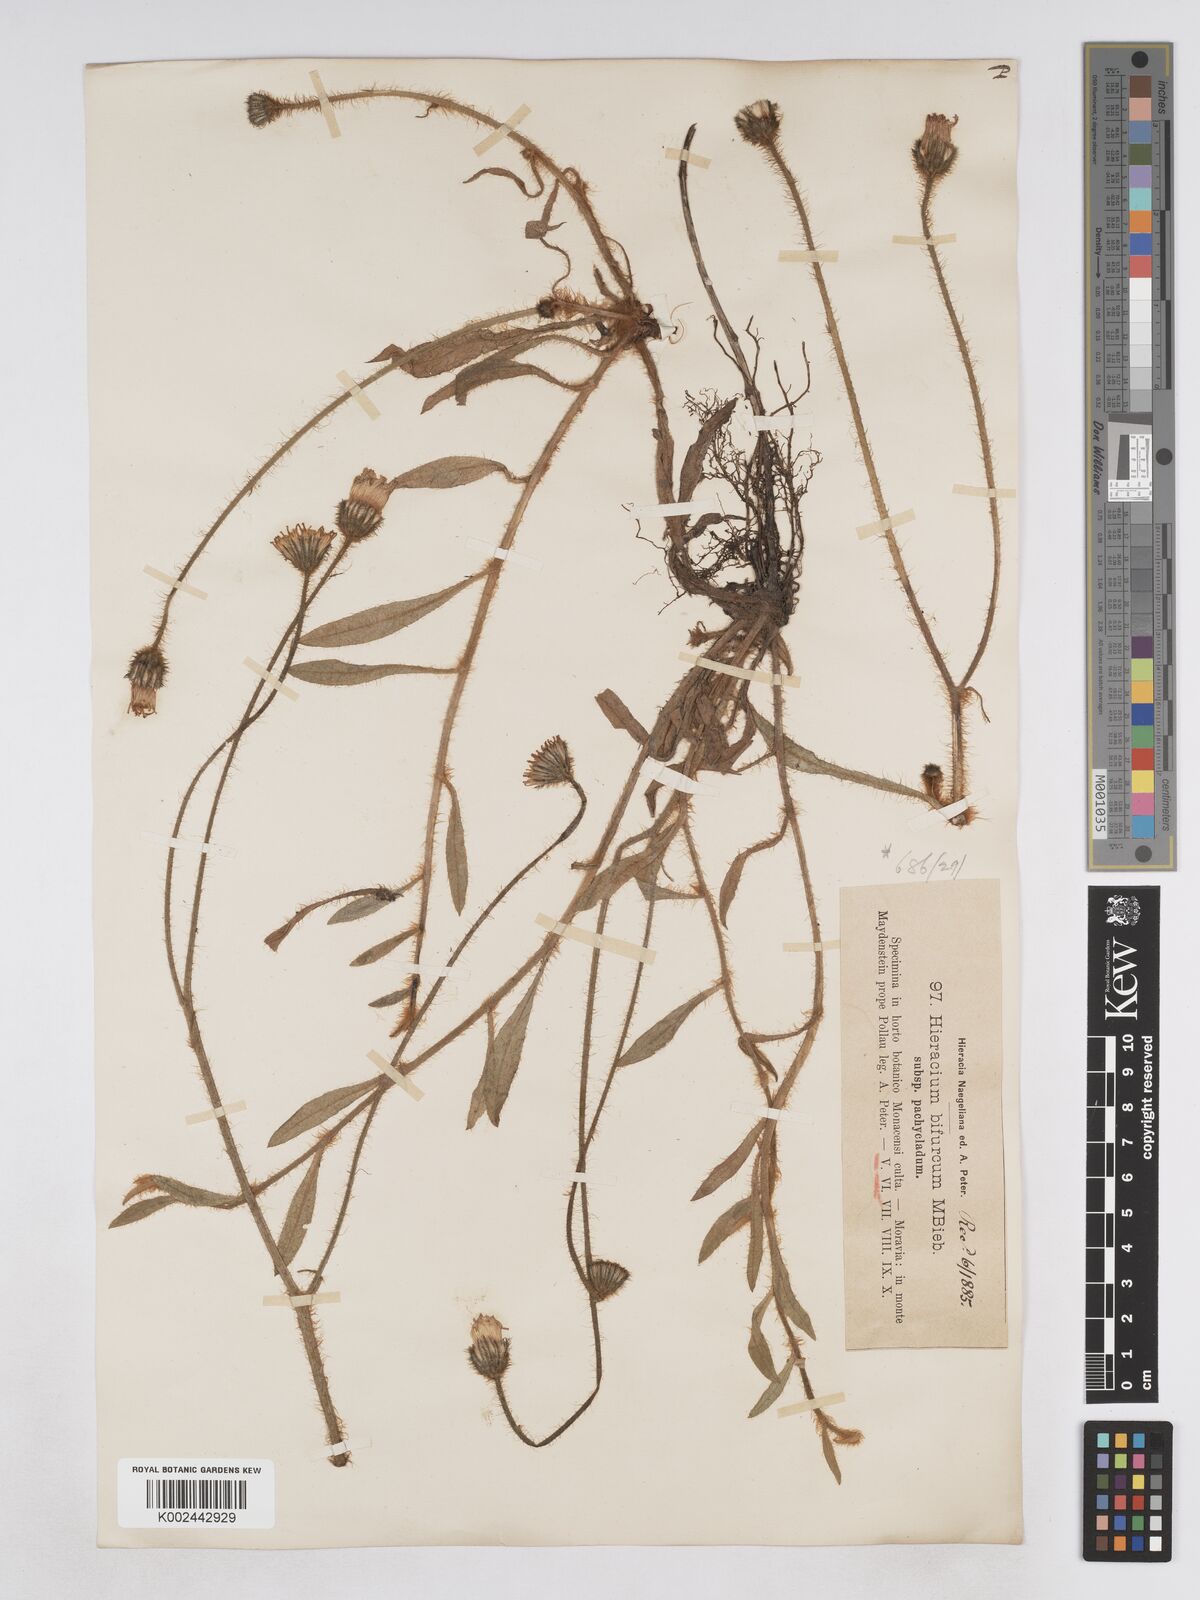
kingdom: Plantae
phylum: Tracheophyta
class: Magnoliopsida
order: Asterales
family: Asteraceae
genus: Pilosella
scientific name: Pilosella bifurca
